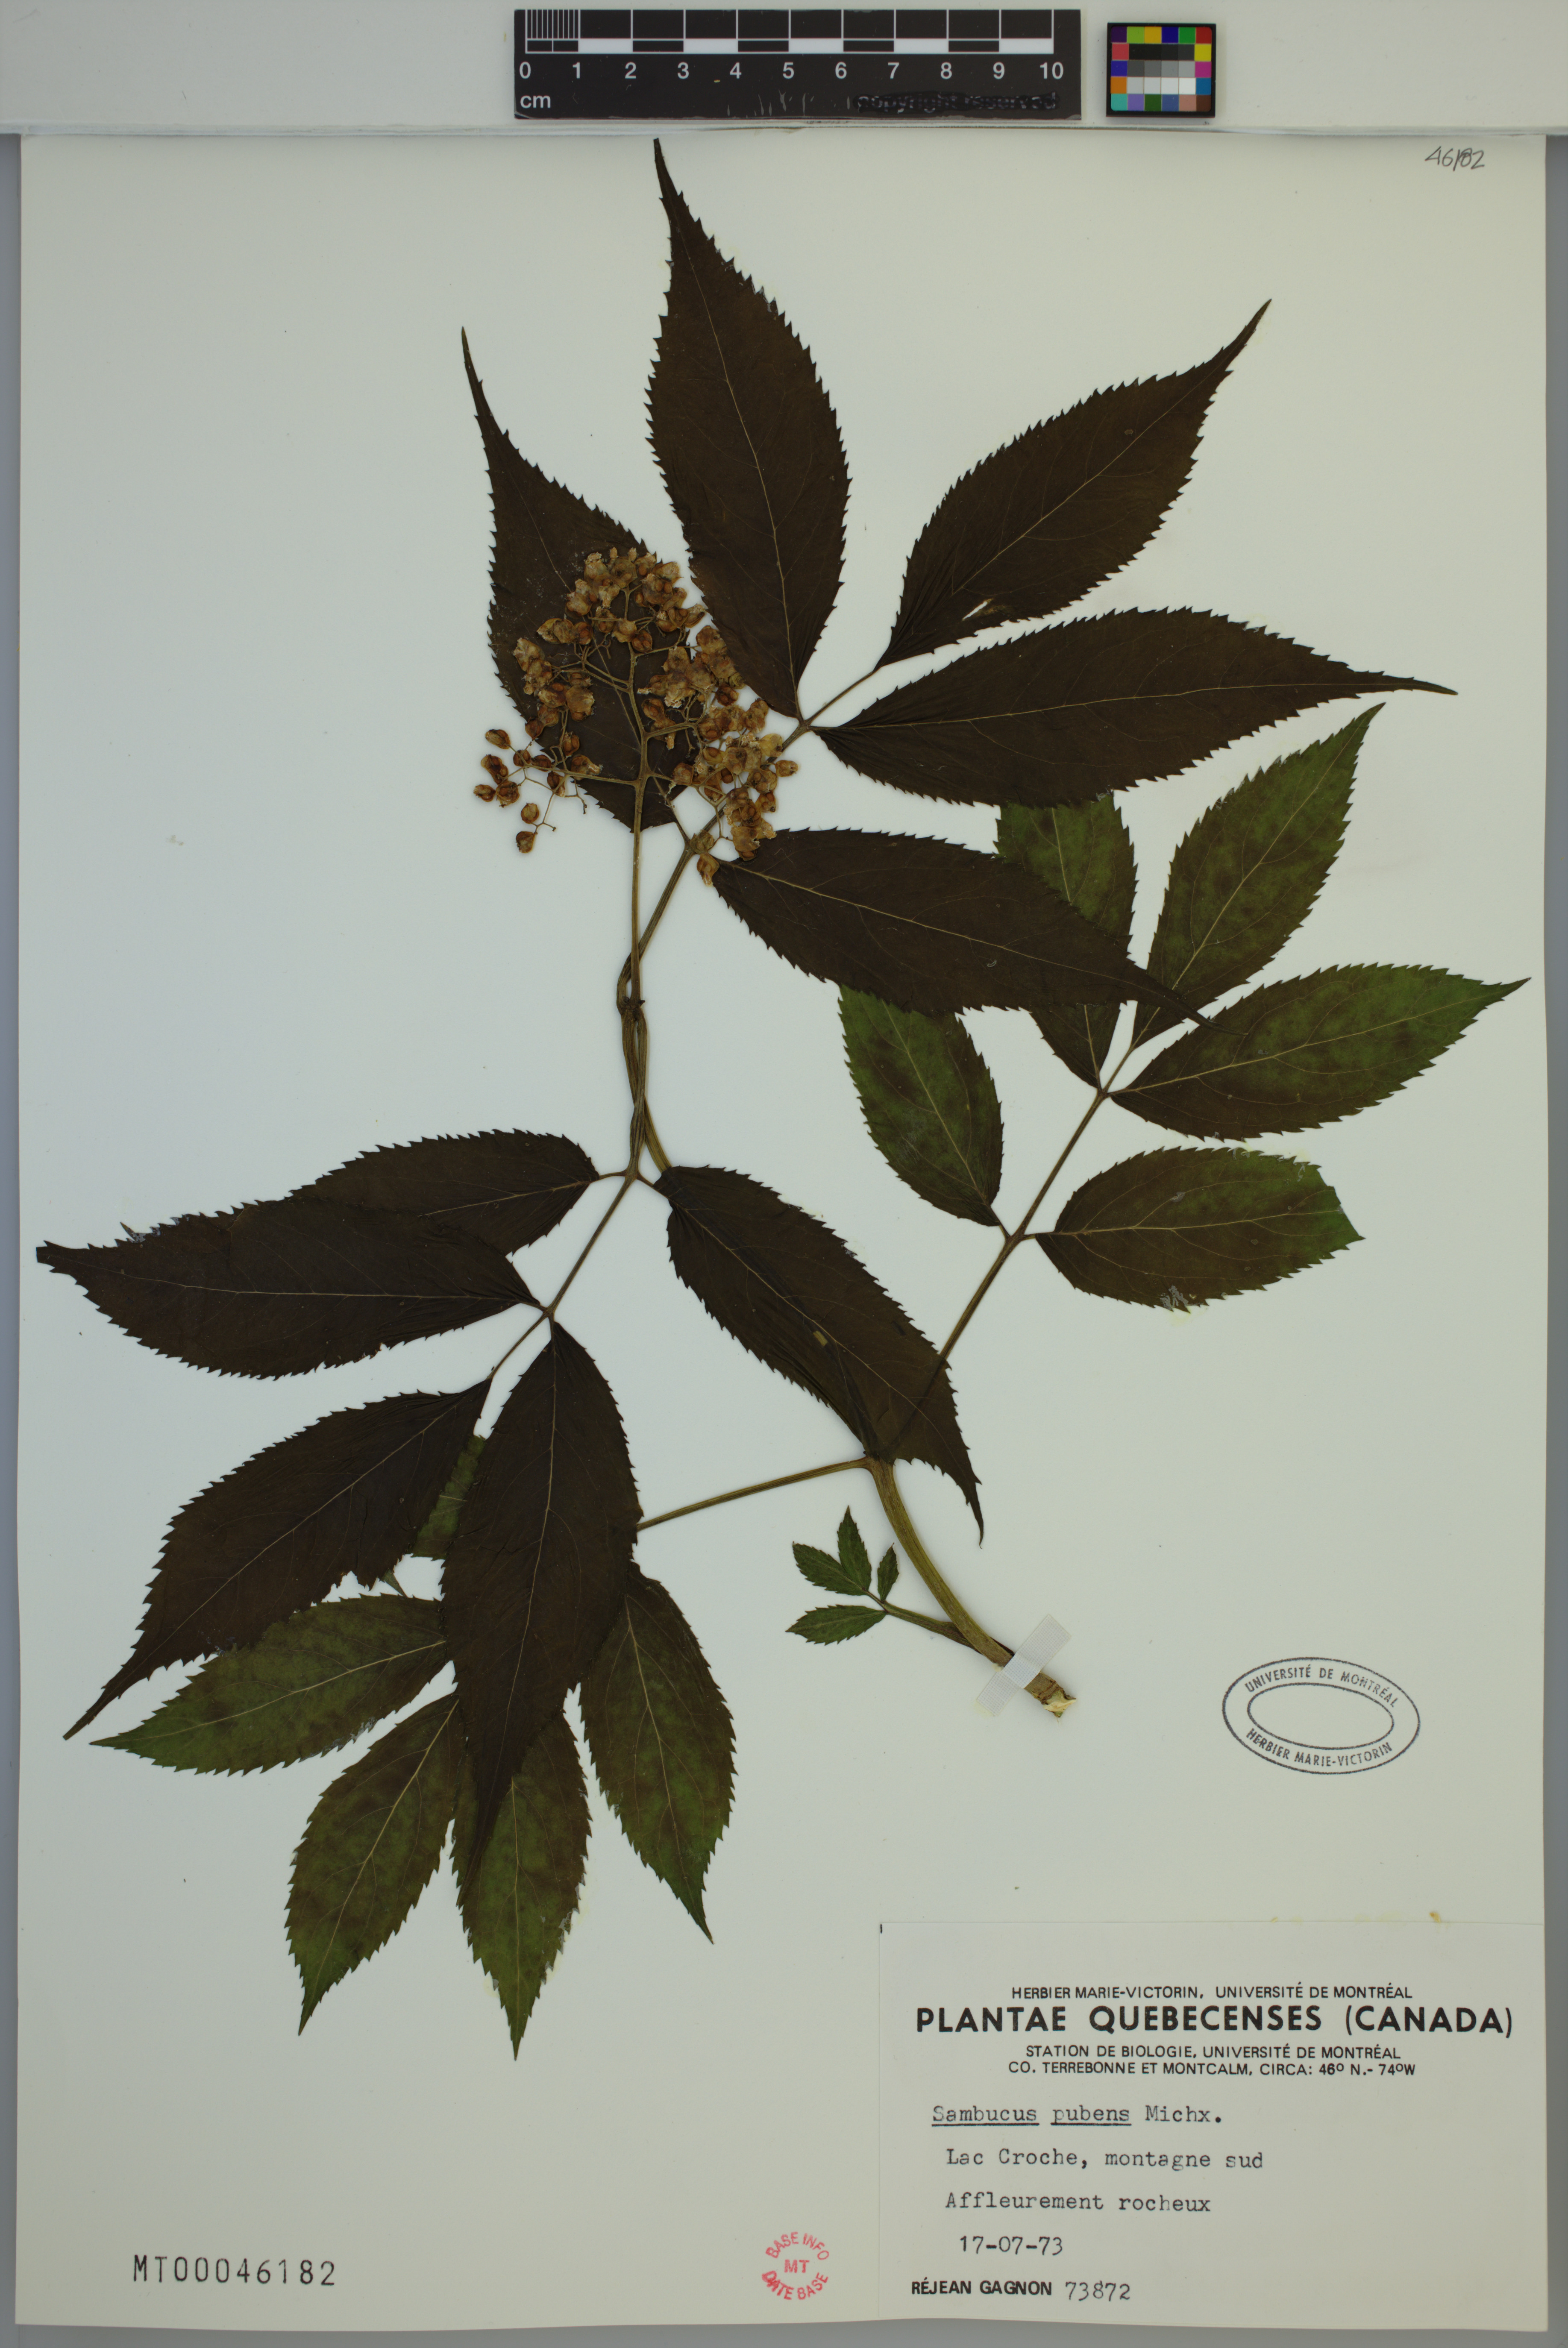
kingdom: Plantae
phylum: Tracheophyta
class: Magnoliopsida
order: Dipsacales
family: Viburnaceae
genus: Sambucus
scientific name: Sambucus racemosa
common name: Red-berried elder
